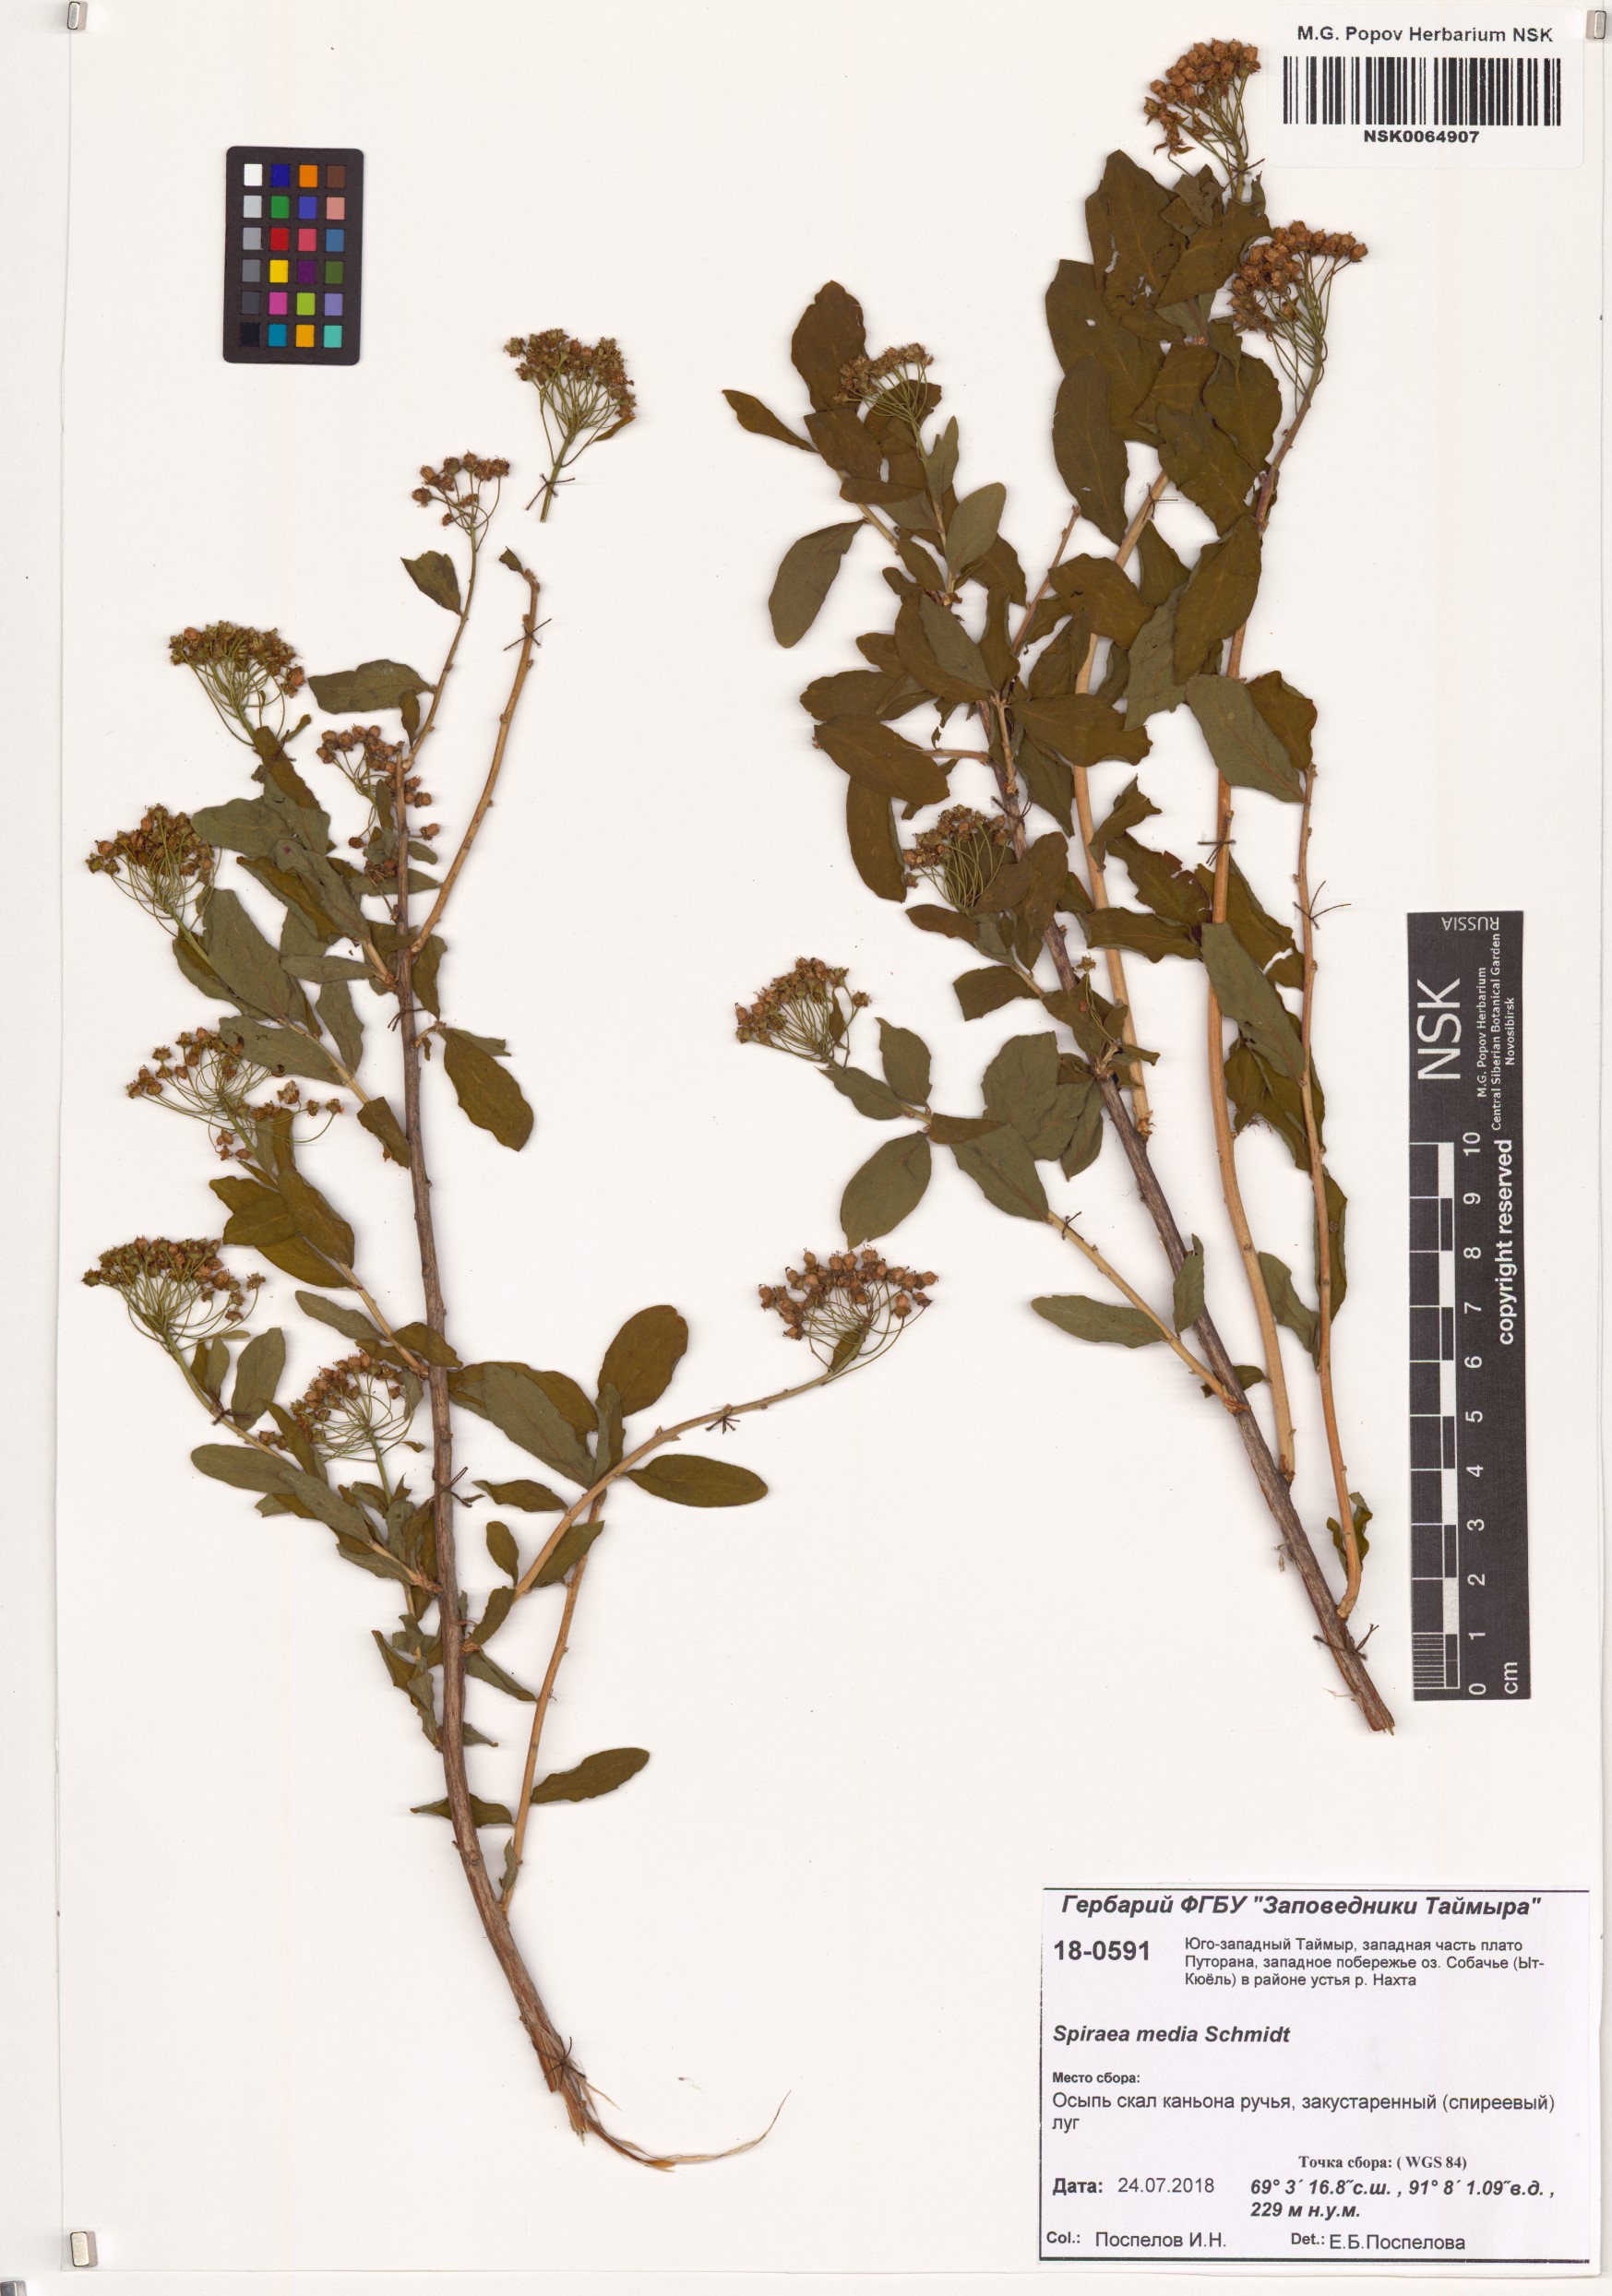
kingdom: Plantae
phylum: Tracheophyta
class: Magnoliopsida
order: Rosales
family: Rosaceae
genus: Spiraea
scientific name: Spiraea media
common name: Russian spiraea
